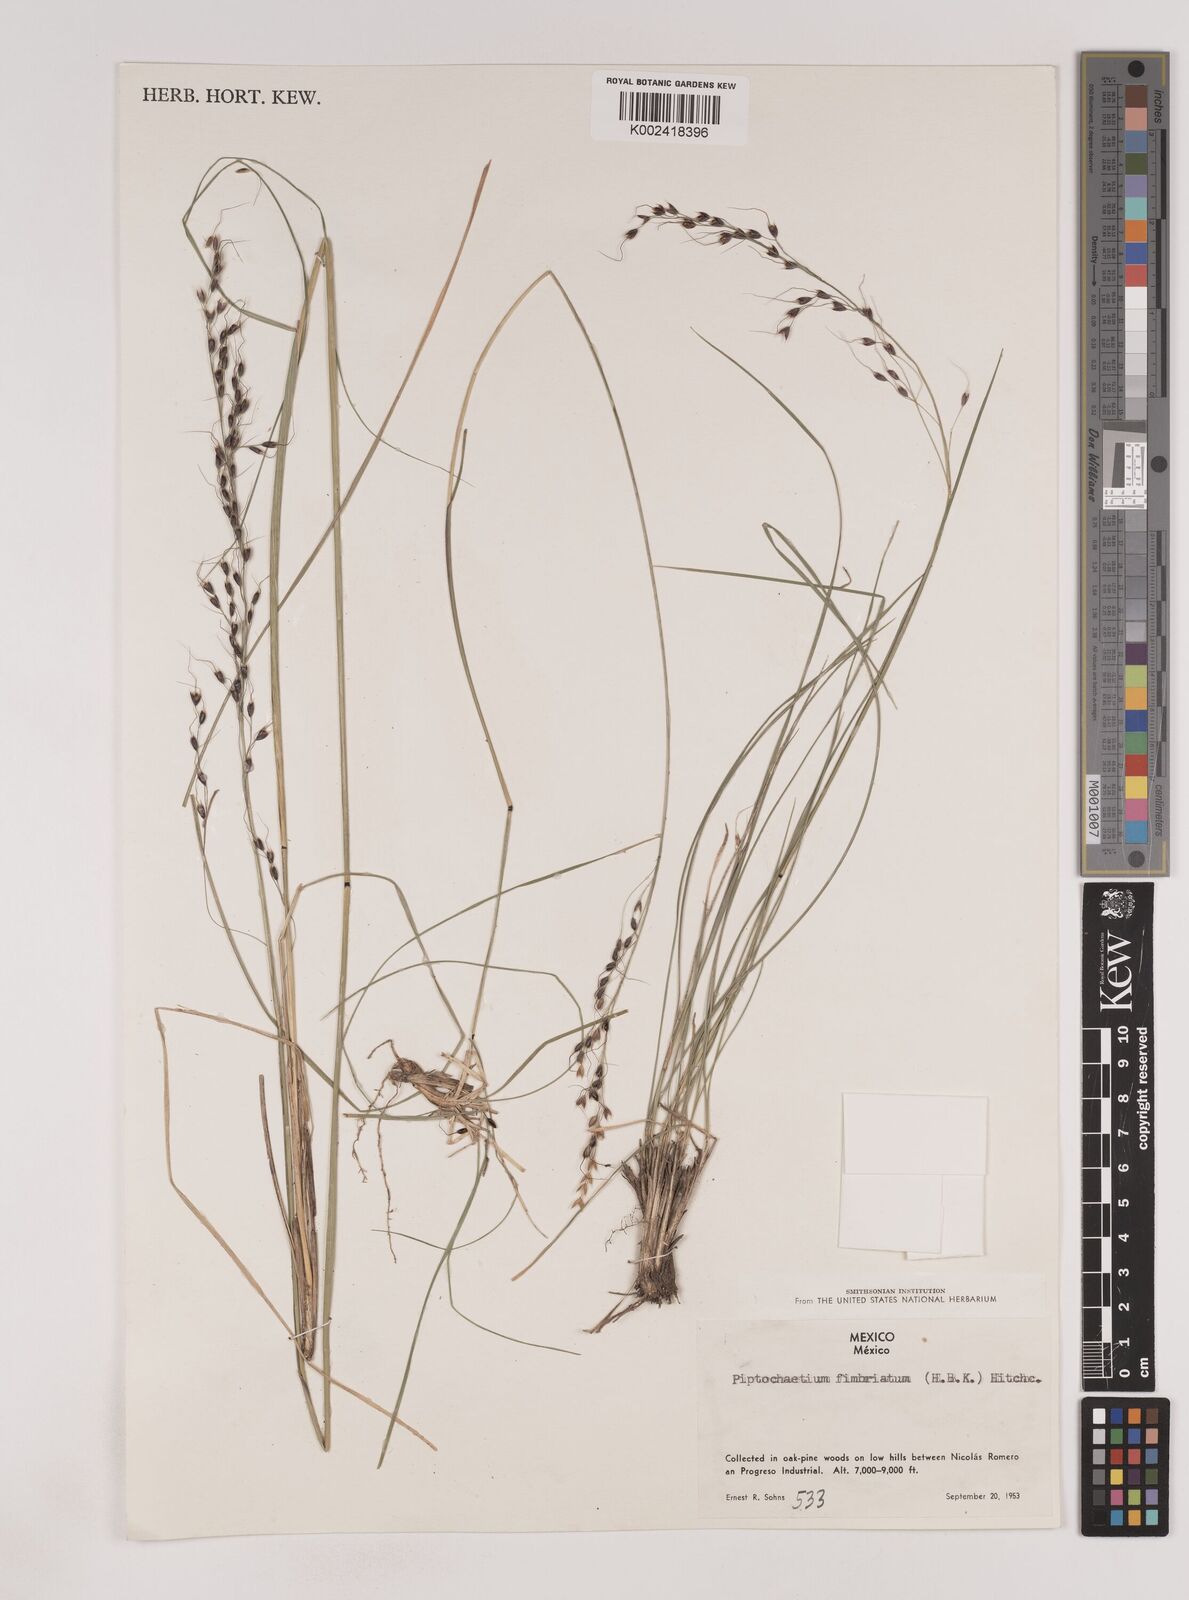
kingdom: Plantae
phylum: Tracheophyta
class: Liliopsida
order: Poales
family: Poaceae
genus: Piptochaetium
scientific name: Piptochaetium fimbriatum
